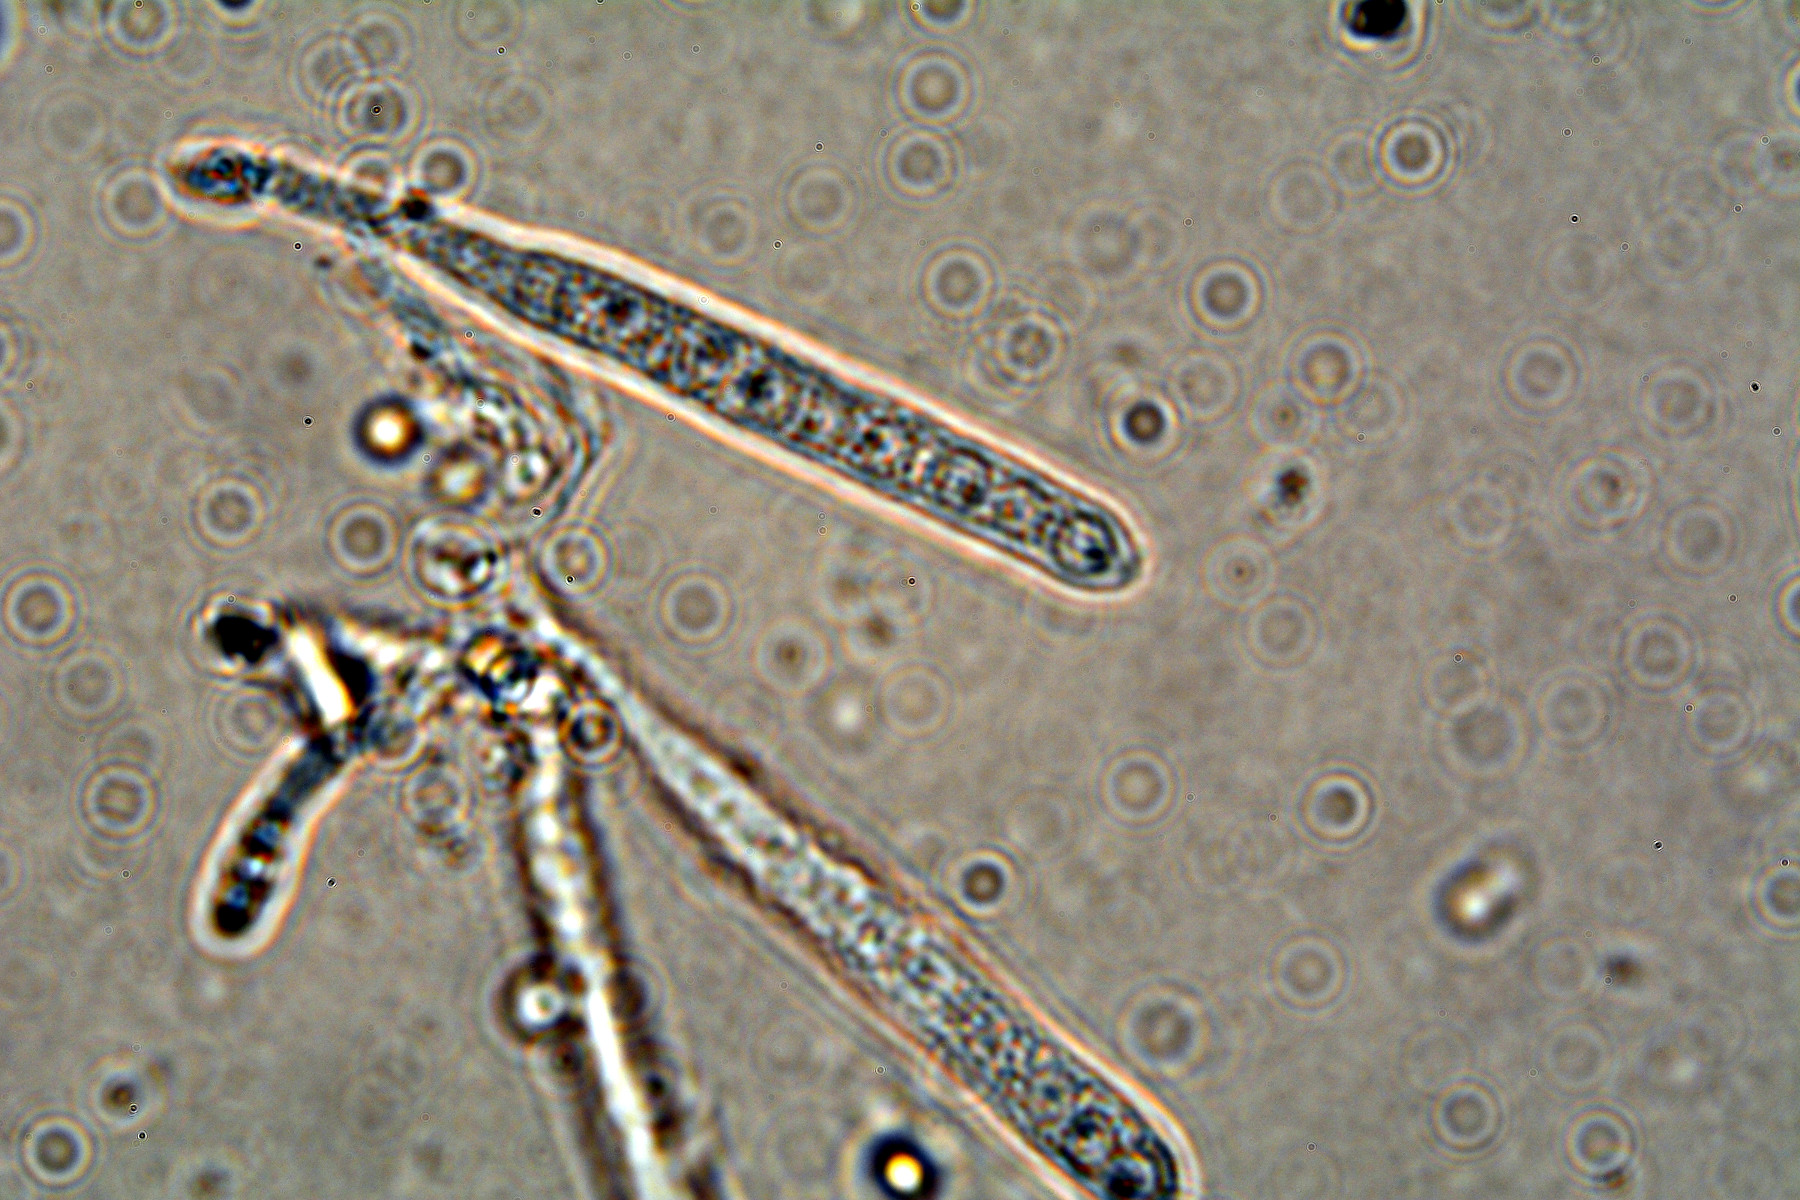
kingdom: Fungi
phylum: Ascomycota
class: Leotiomycetes
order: Helotiales
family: Lachnaceae
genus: Lachnellula
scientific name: Lachnellula calycina
